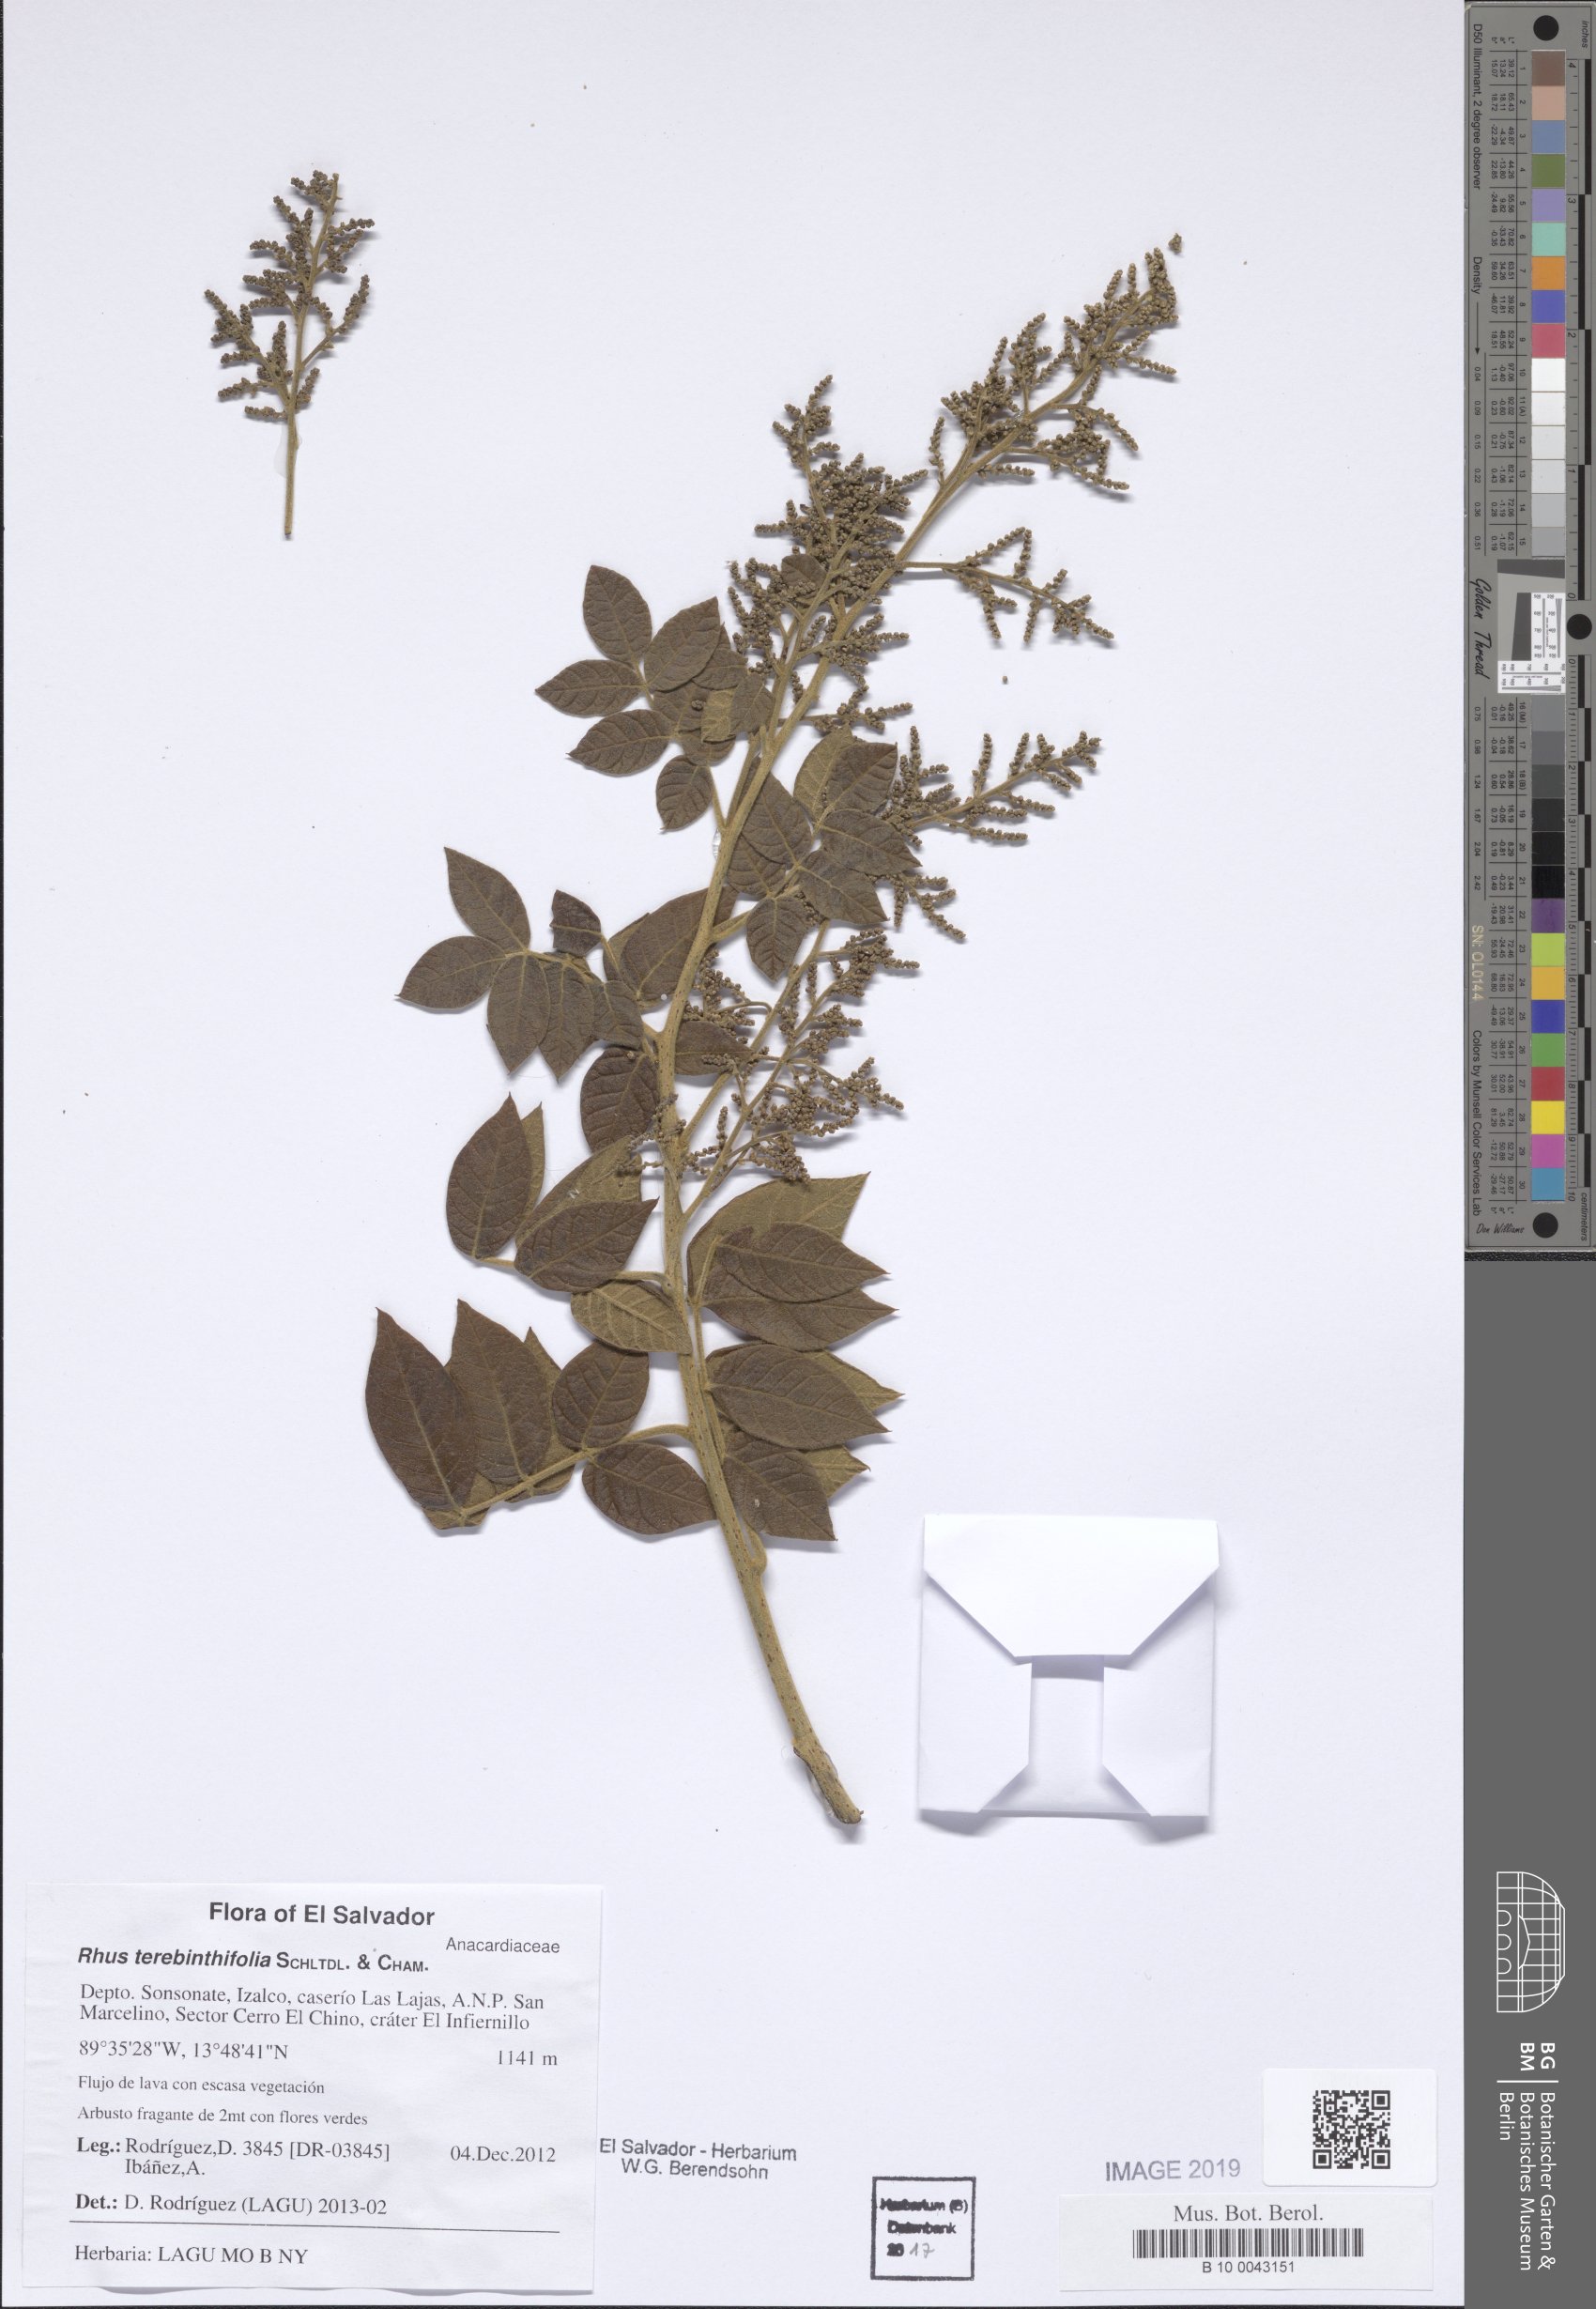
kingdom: Plantae
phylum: Tracheophyta
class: Magnoliopsida
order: Sapindales
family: Anacardiaceae
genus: Schinus
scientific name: Schinus terebinthifolia
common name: Brazilian peppertree
